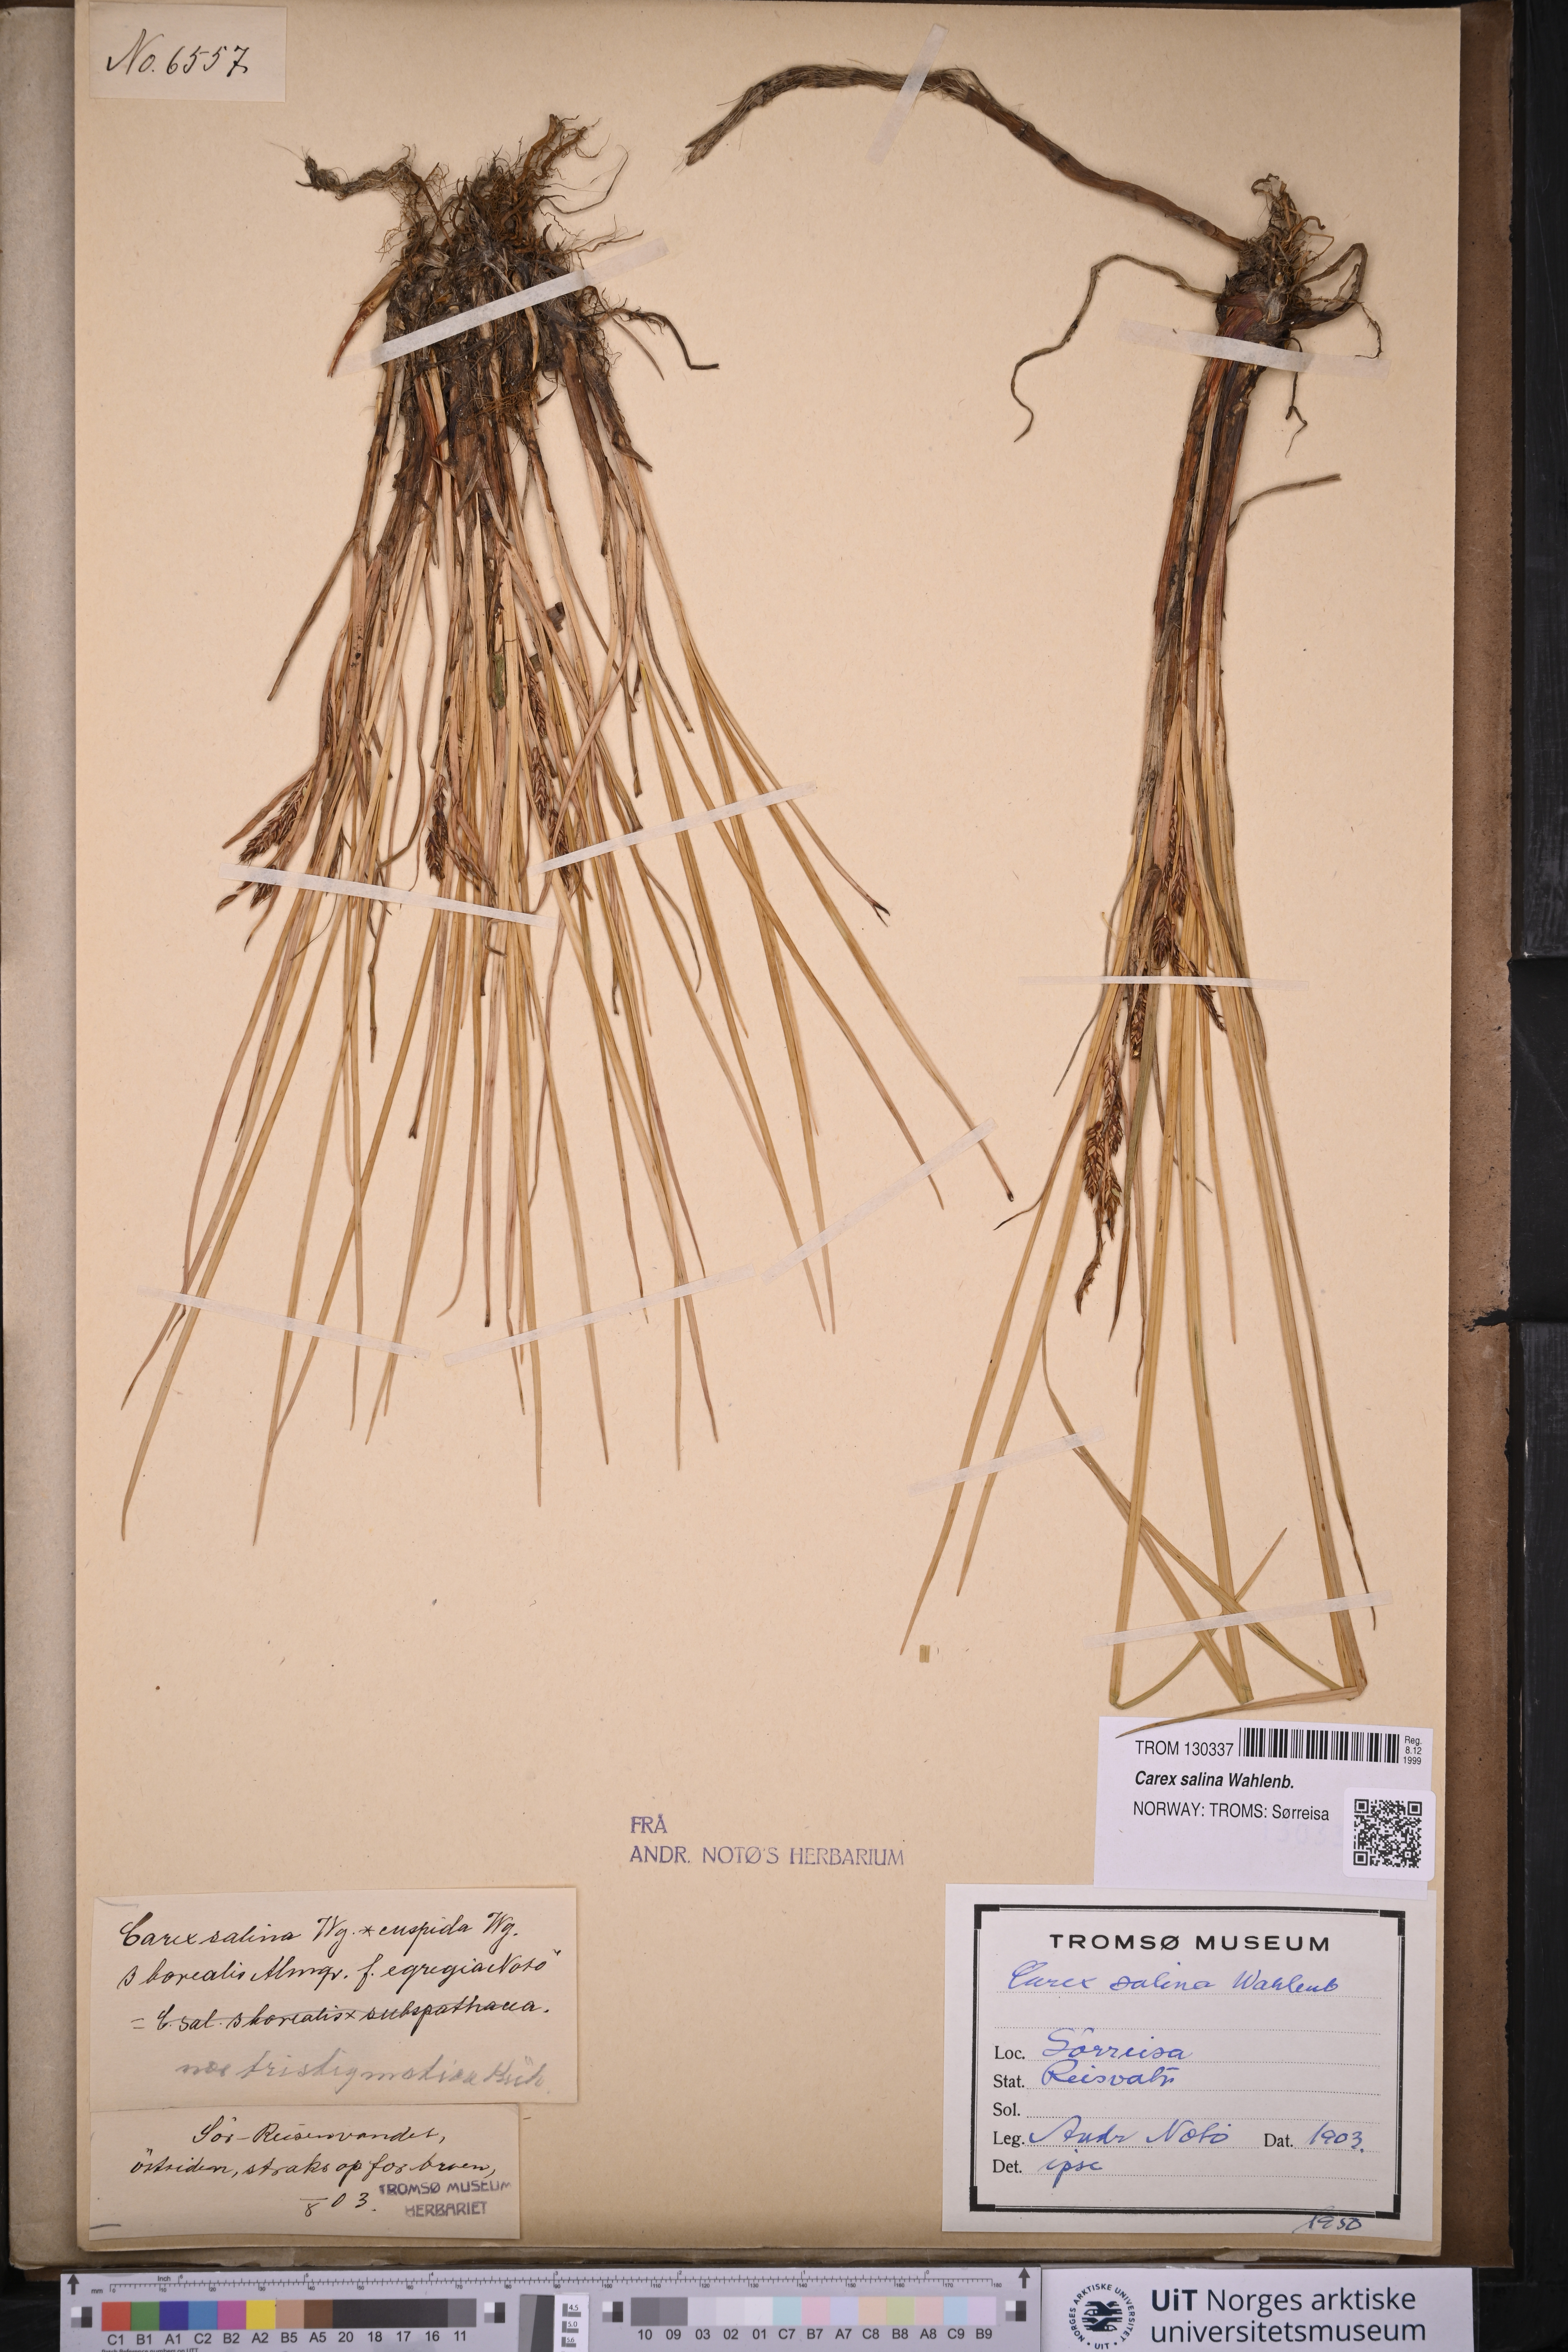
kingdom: Plantae
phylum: Tracheophyta
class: Liliopsida
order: Poales
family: Cyperaceae
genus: Carex
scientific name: Carex salina
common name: Saltmarsh sedge
